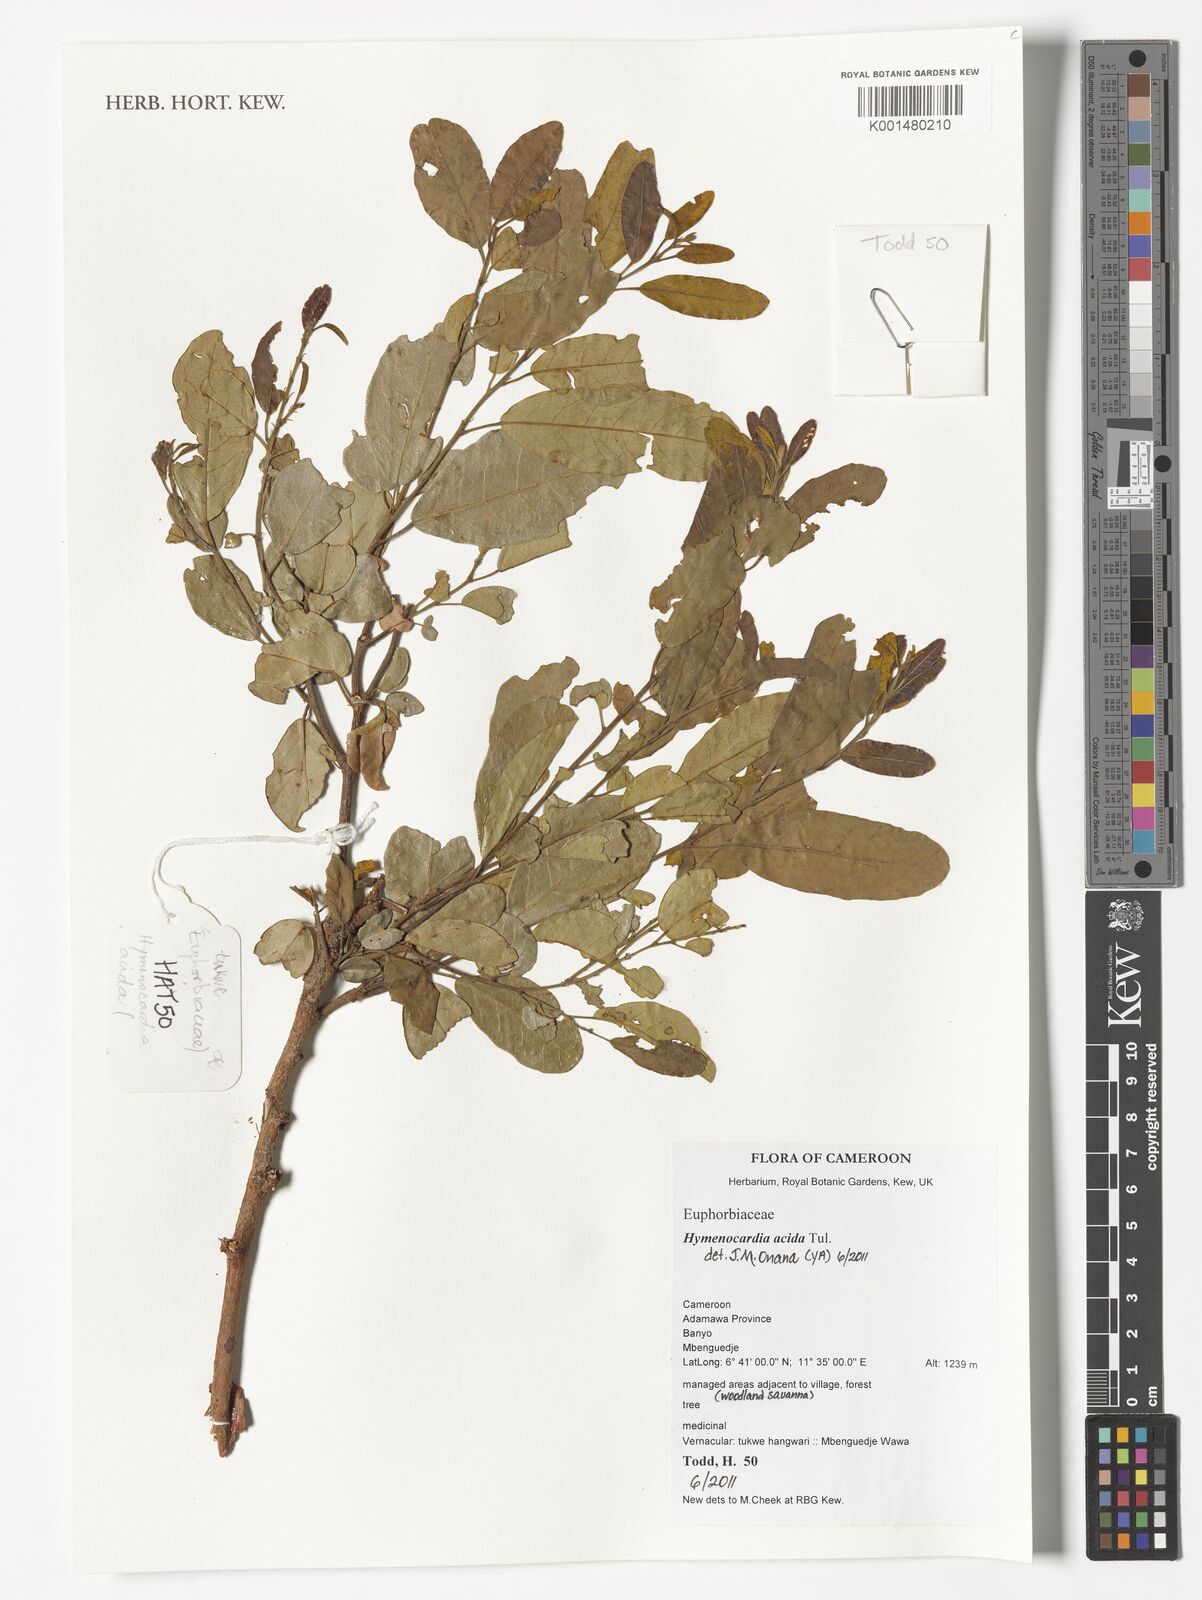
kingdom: Plantae
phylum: Tracheophyta
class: Magnoliopsida
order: Malpighiales
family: Phyllanthaceae
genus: Hymenocardia
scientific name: Hymenocardia acida
